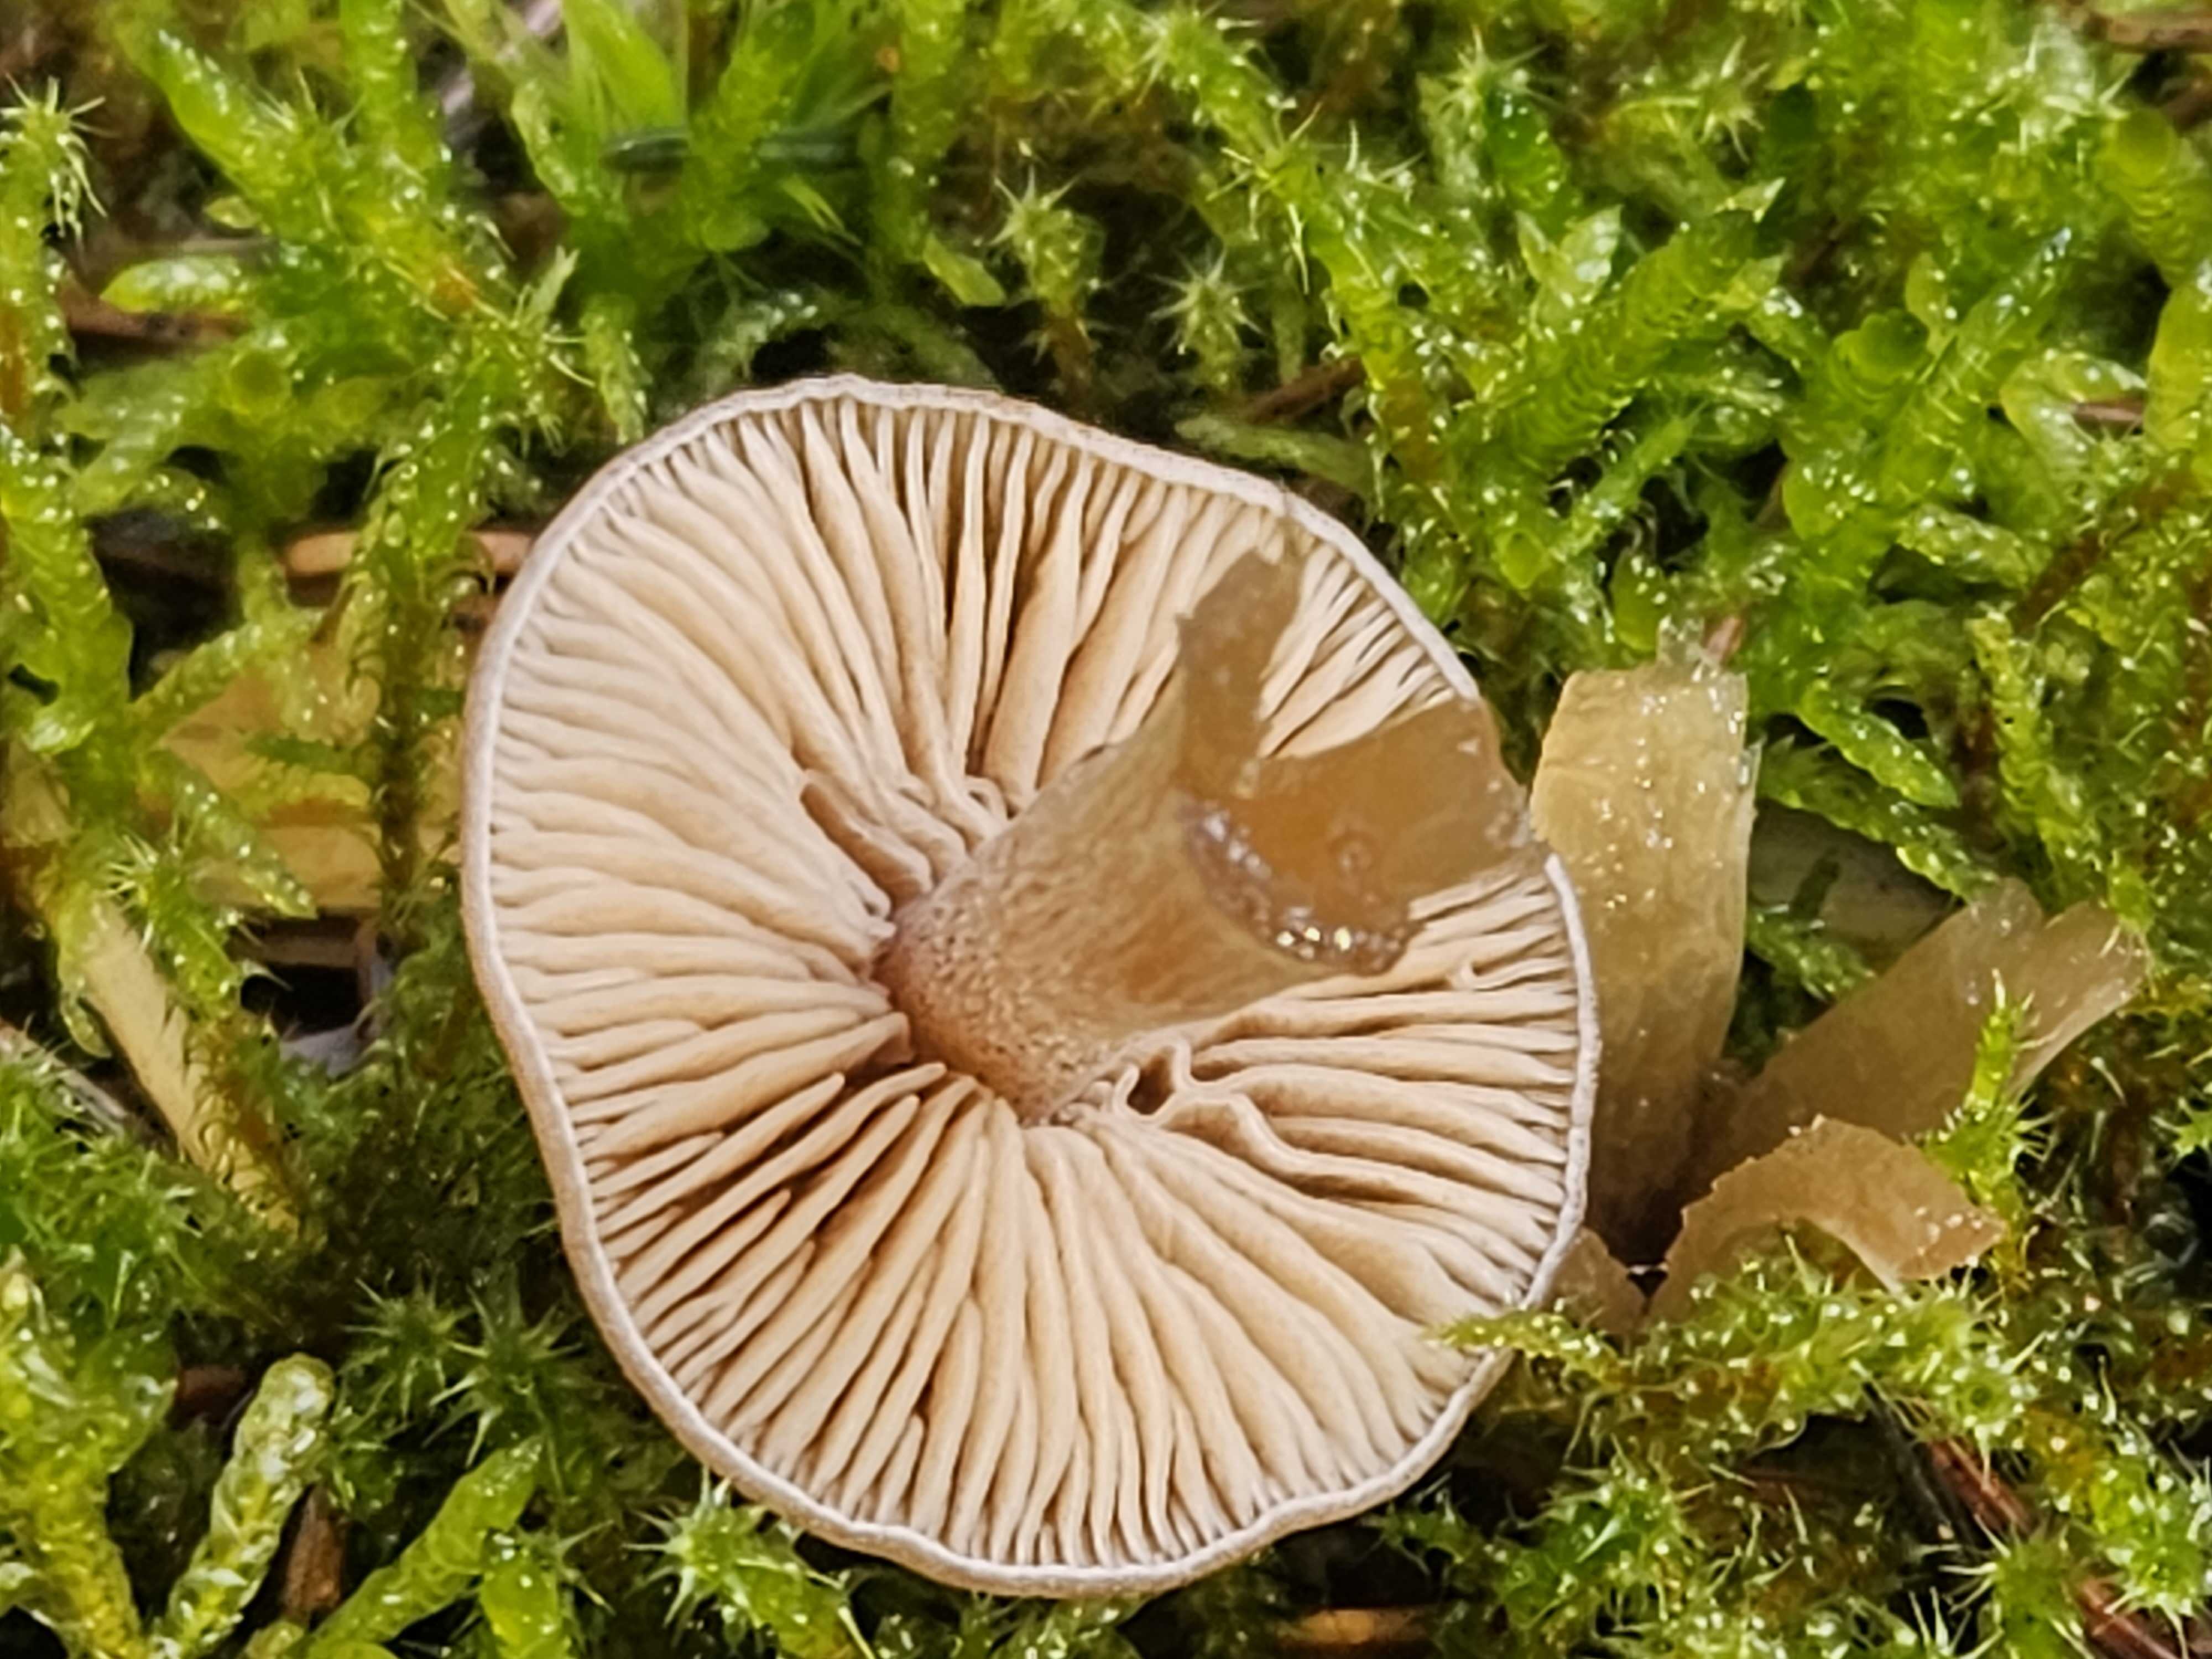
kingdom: Fungi
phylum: Basidiomycota
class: Agaricomycetes
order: Agaricales
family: Entolomataceae
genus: Entoloma
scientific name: Entoloma cetratum
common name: voks-rødblad
